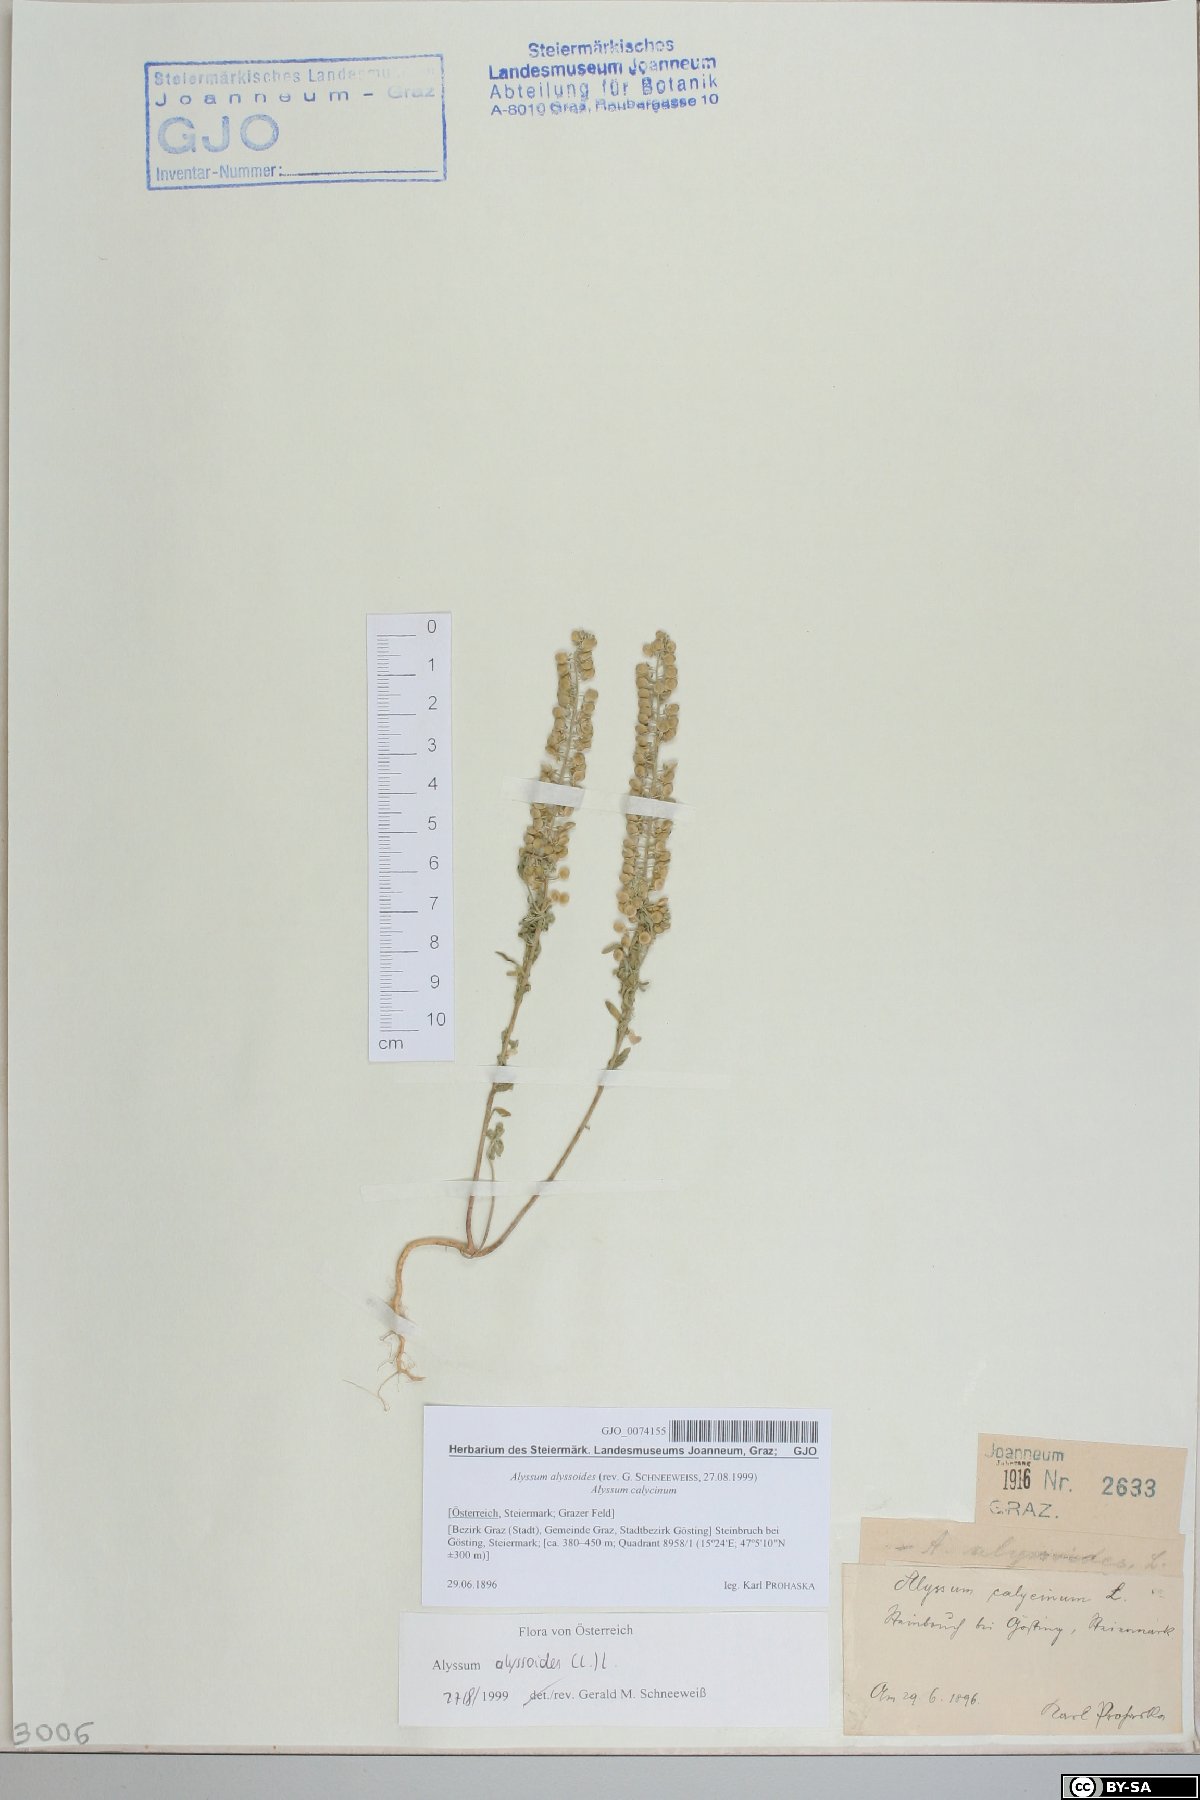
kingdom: Plantae
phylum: Tracheophyta
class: Magnoliopsida
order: Brassicales
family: Brassicaceae
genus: Alyssum
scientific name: Alyssum alyssoides
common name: Small alison
